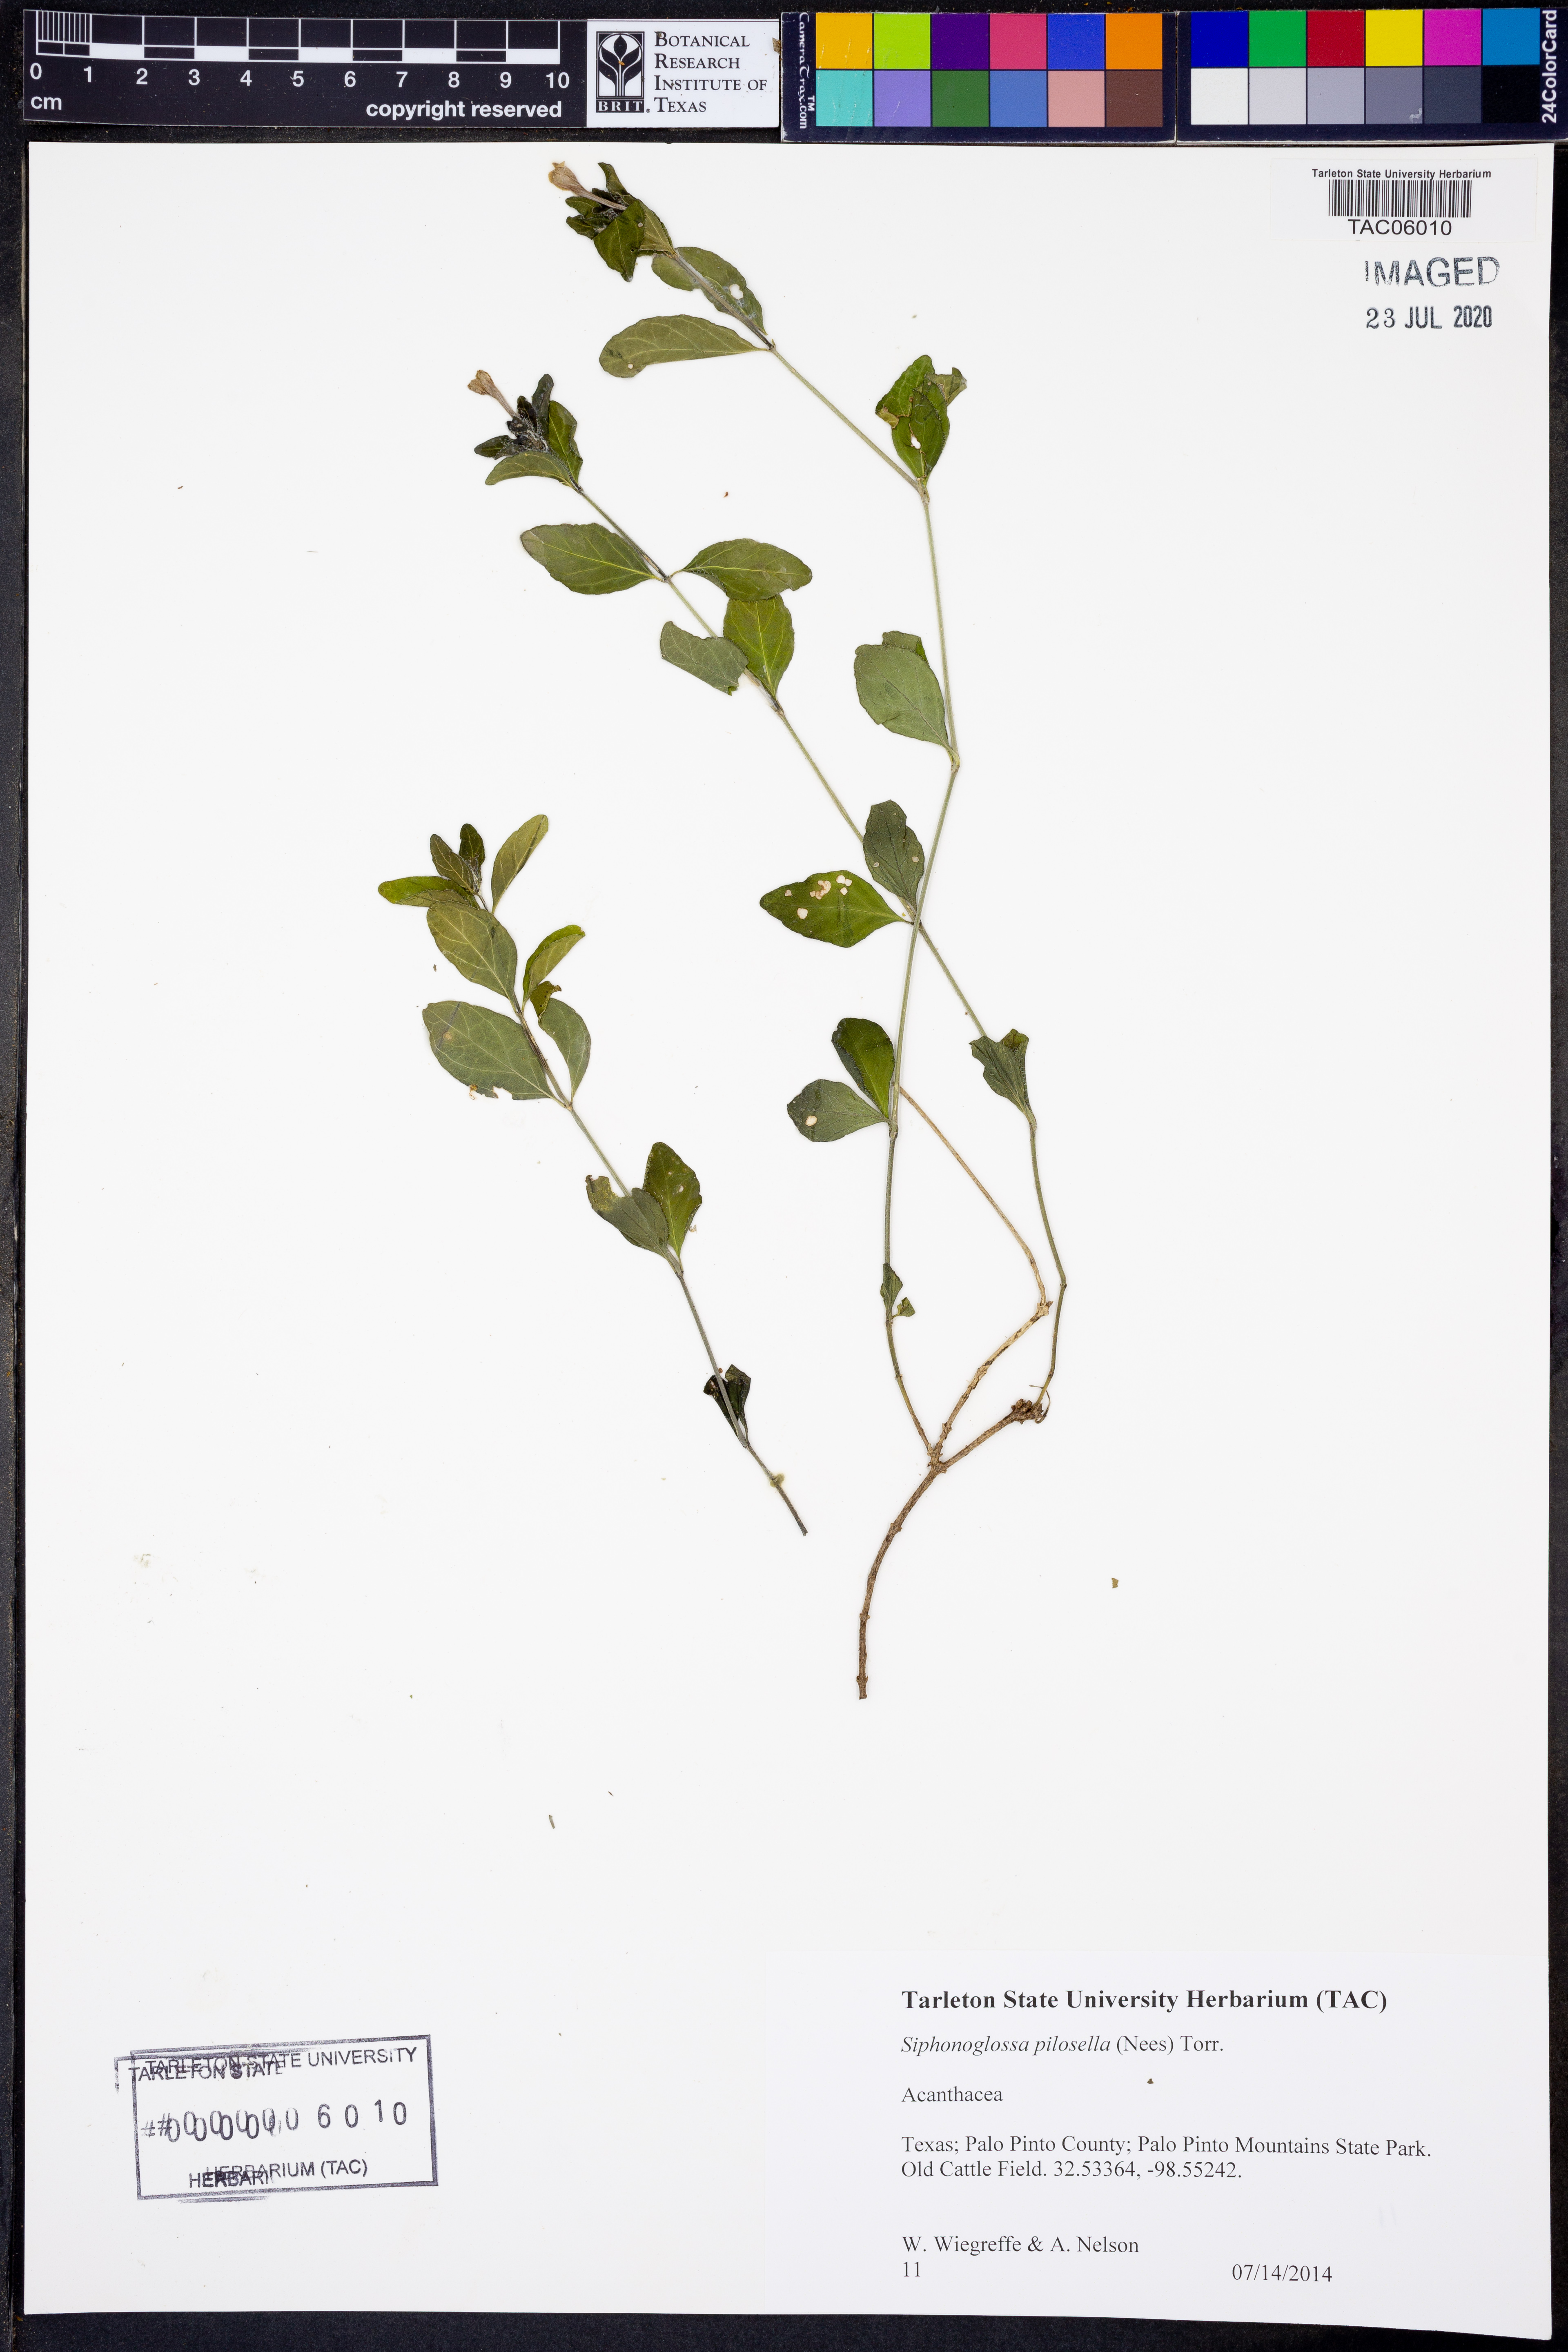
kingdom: Plantae
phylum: Tracheophyta
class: Magnoliopsida
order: Lamiales
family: Acanthaceae
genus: Justicia
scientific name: Justicia pilosella
